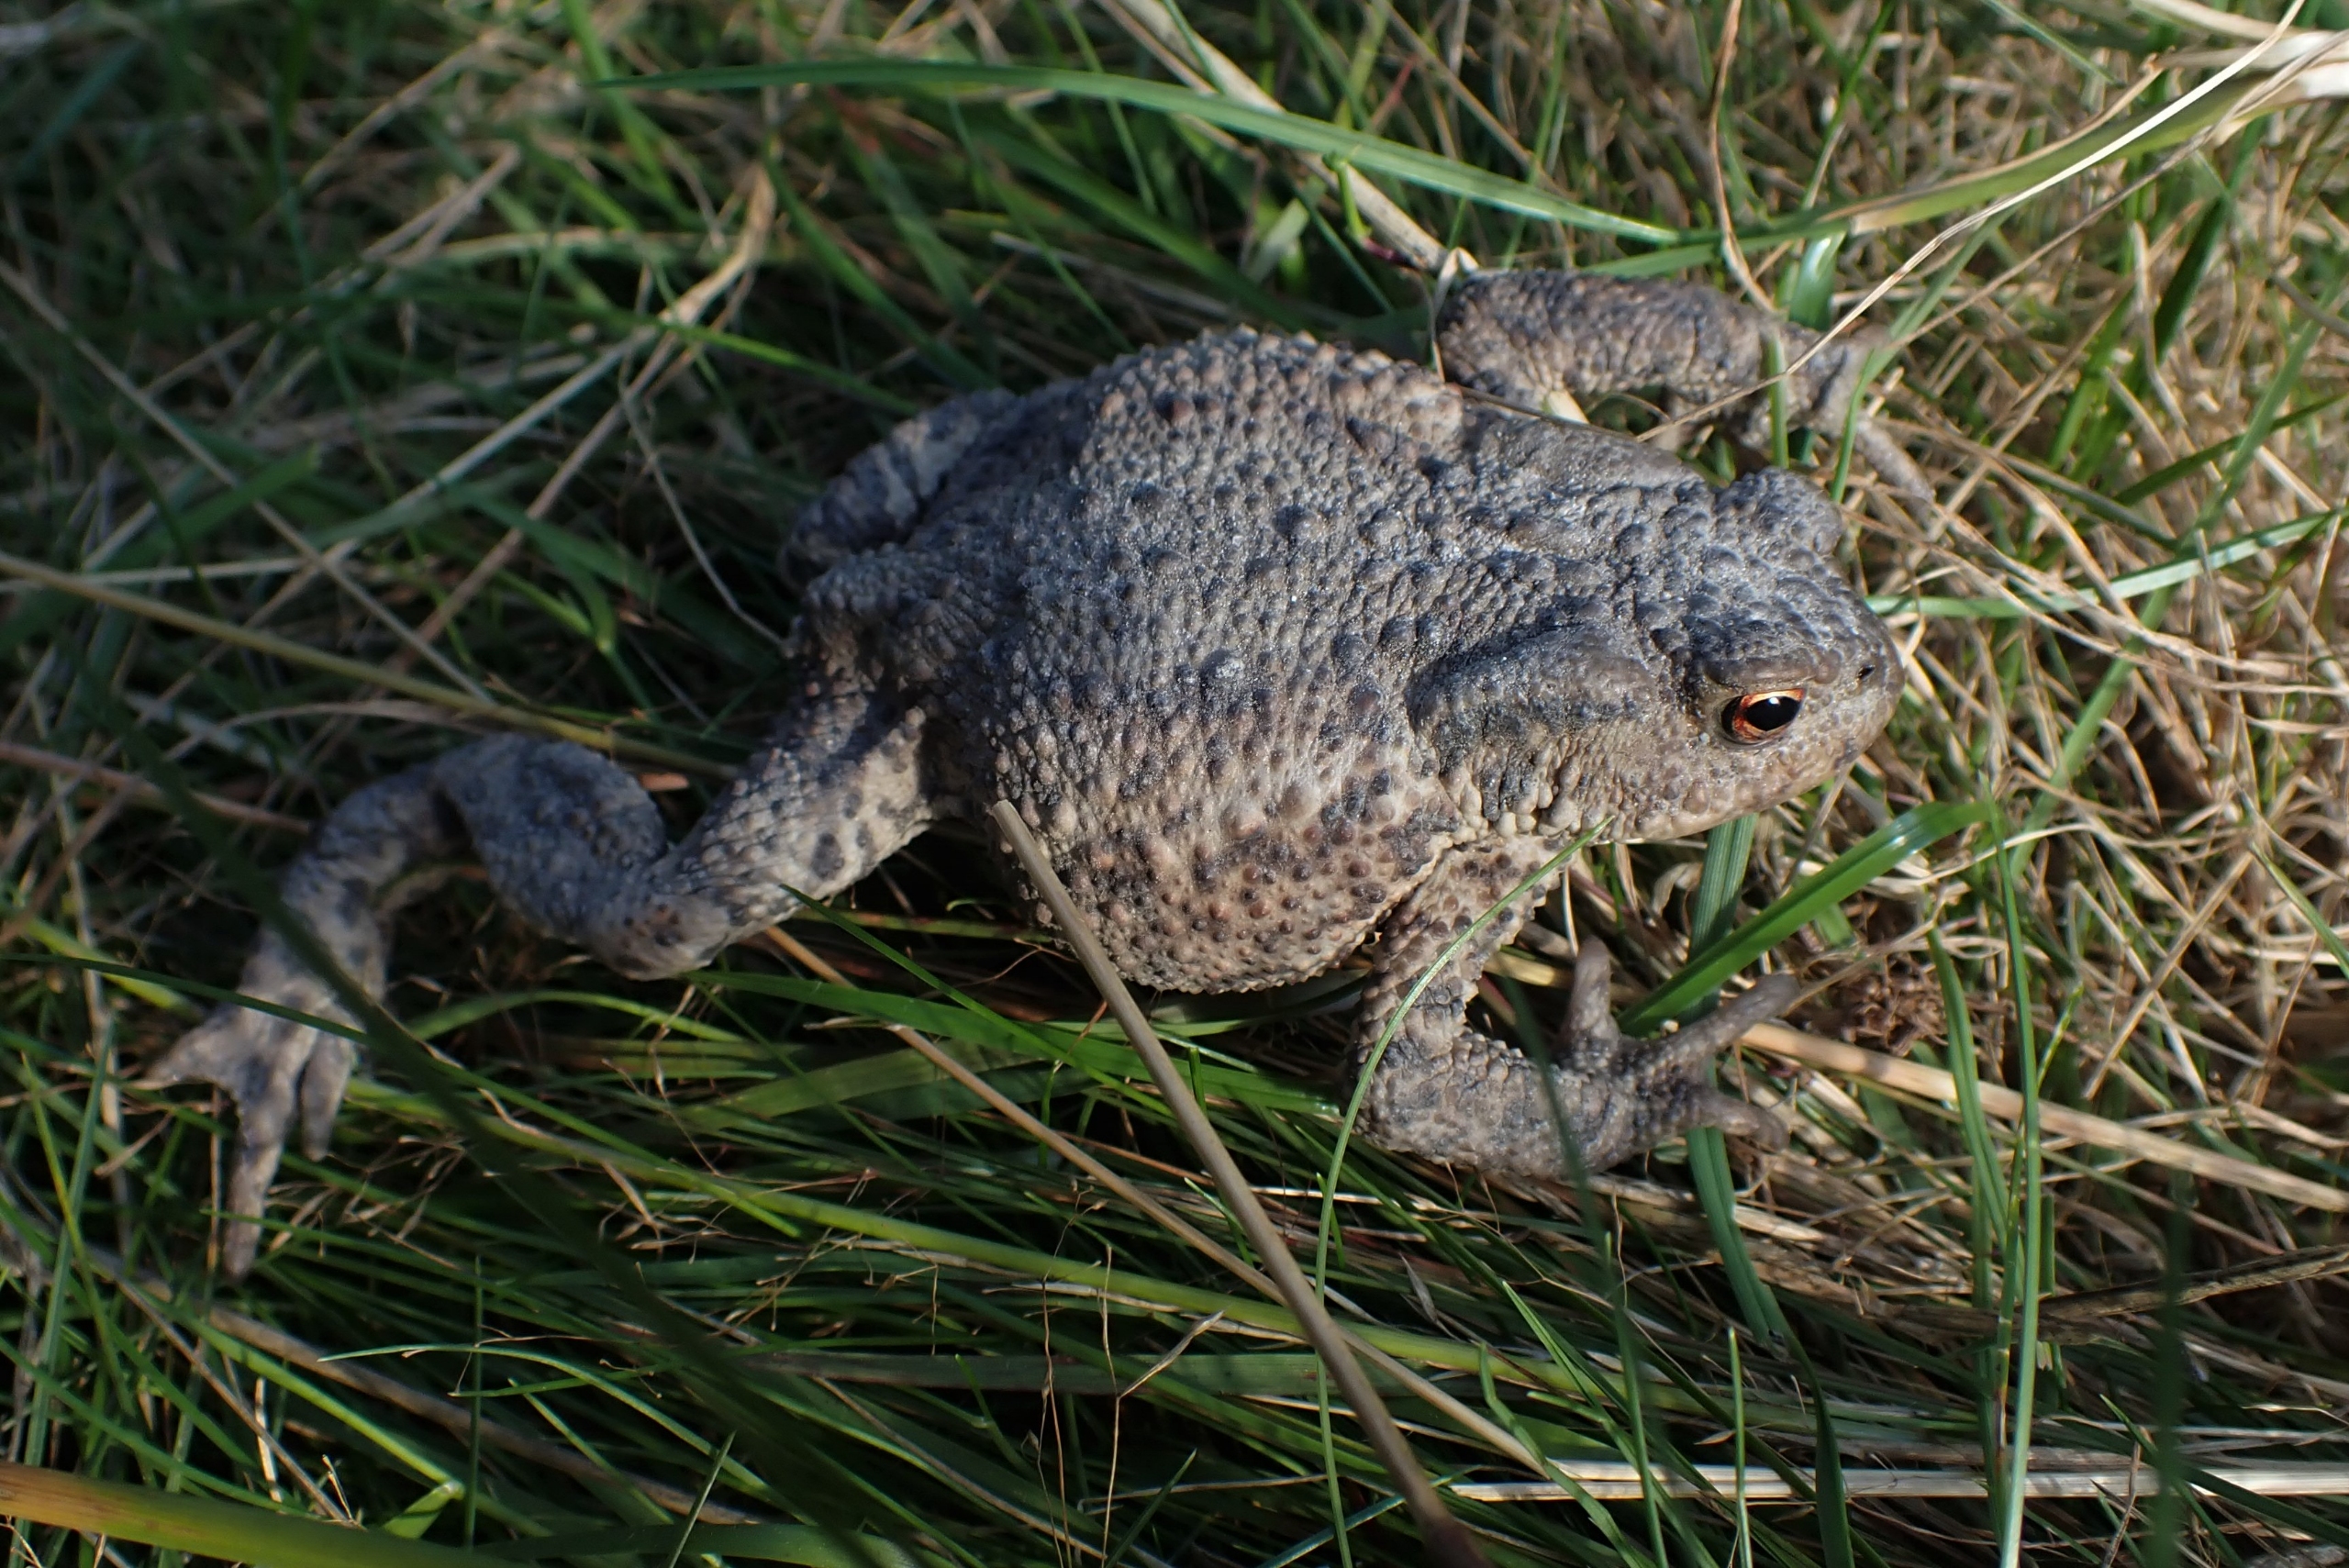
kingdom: Animalia
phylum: Chordata
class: Amphibia
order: Anura
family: Bufonidae
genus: Bufo
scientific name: Bufo bufo
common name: Skrubtudse
